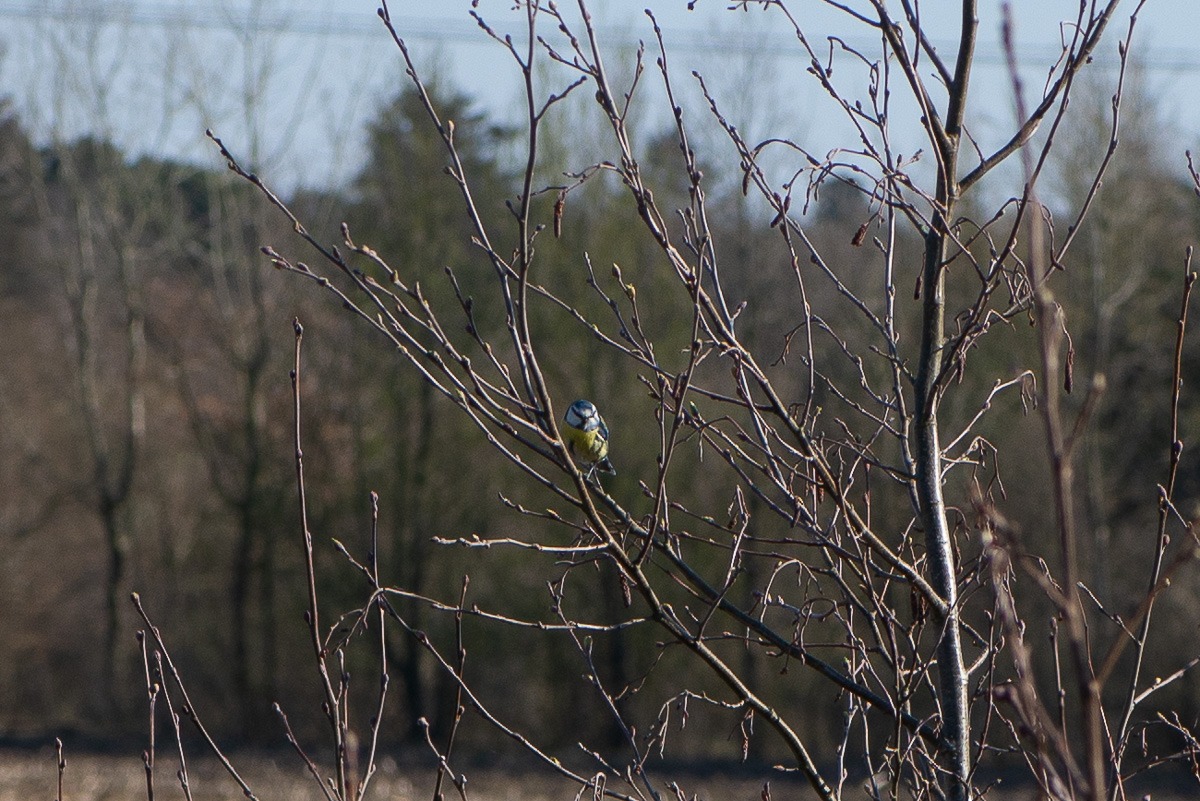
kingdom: Animalia
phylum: Chordata
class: Aves
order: Passeriformes
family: Paridae
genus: Cyanistes
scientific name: Cyanistes caeruleus
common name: Blåmejse
